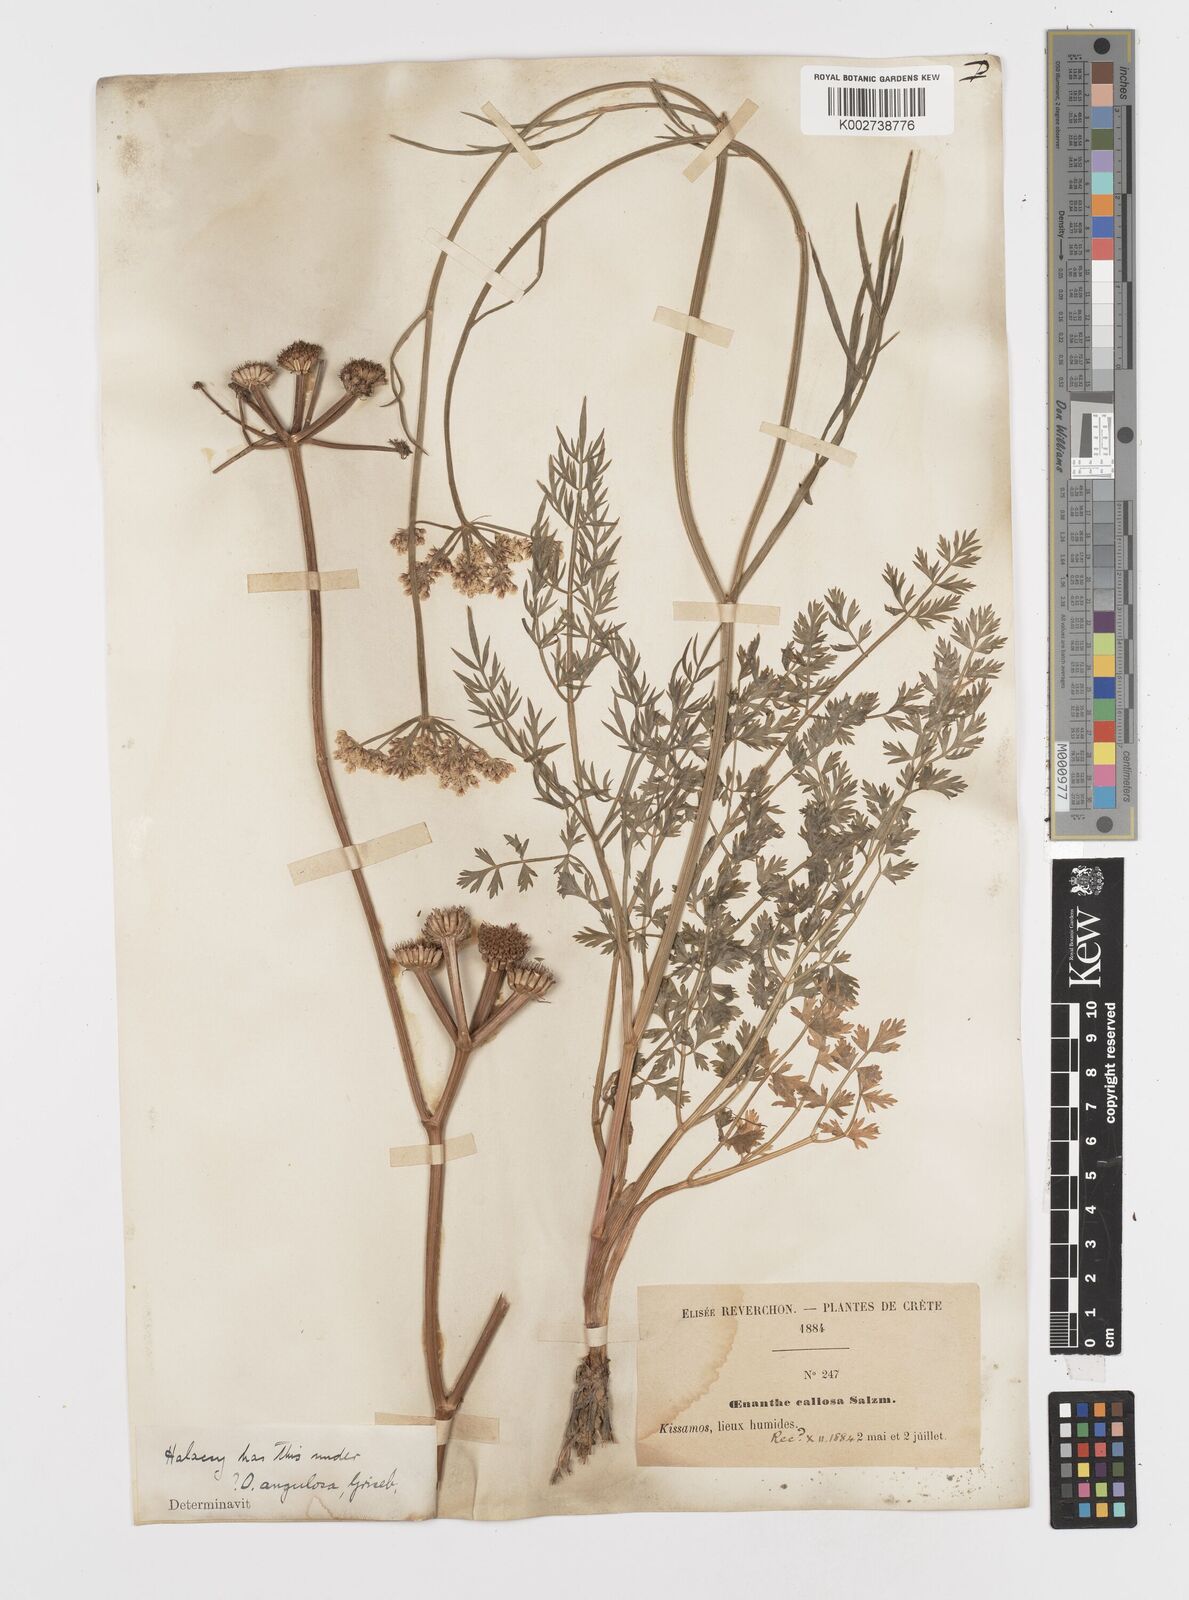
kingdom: Plantae
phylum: Tracheophyta
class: Magnoliopsida
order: Apiales
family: Apiaceae
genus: Oenanthe
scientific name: Oenanthe pimpinelloides
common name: Corky-fruited water-dropwort
